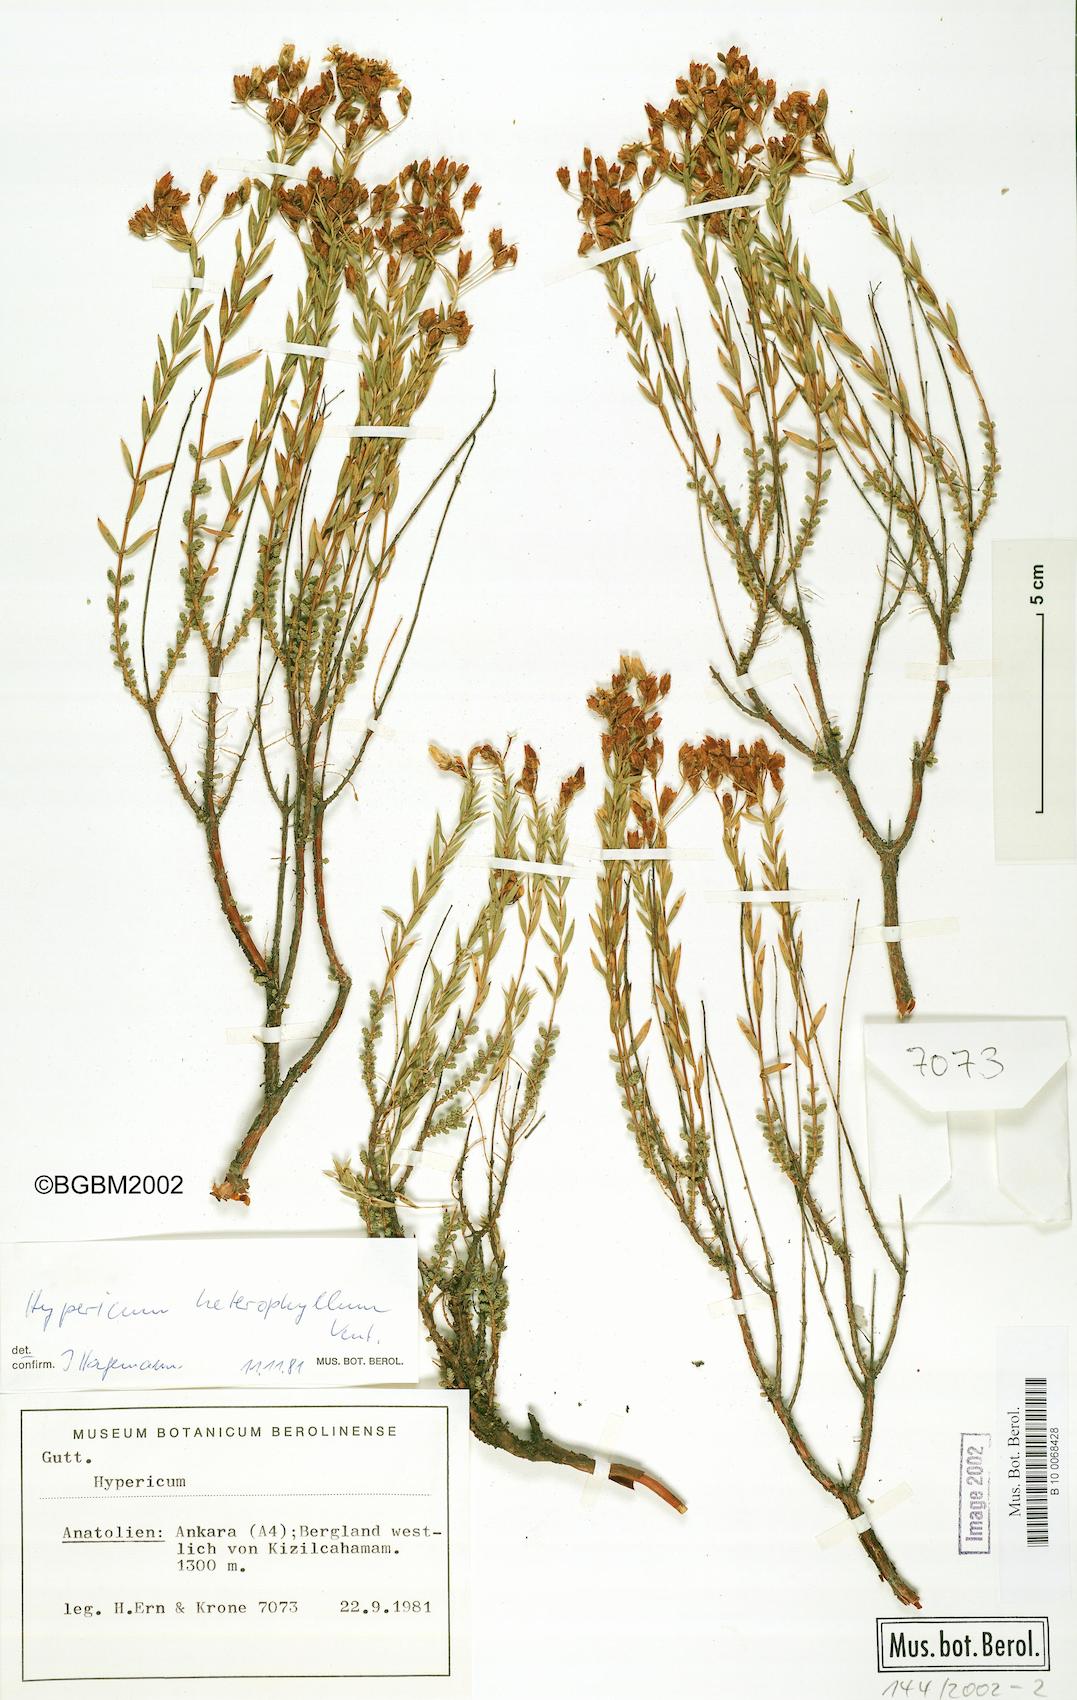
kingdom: Plantae
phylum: Tracheophyta
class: Magnoliopsida
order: Malpighiales
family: Hypericaceae
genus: Hypericum
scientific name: Hypericum heterophyllum
